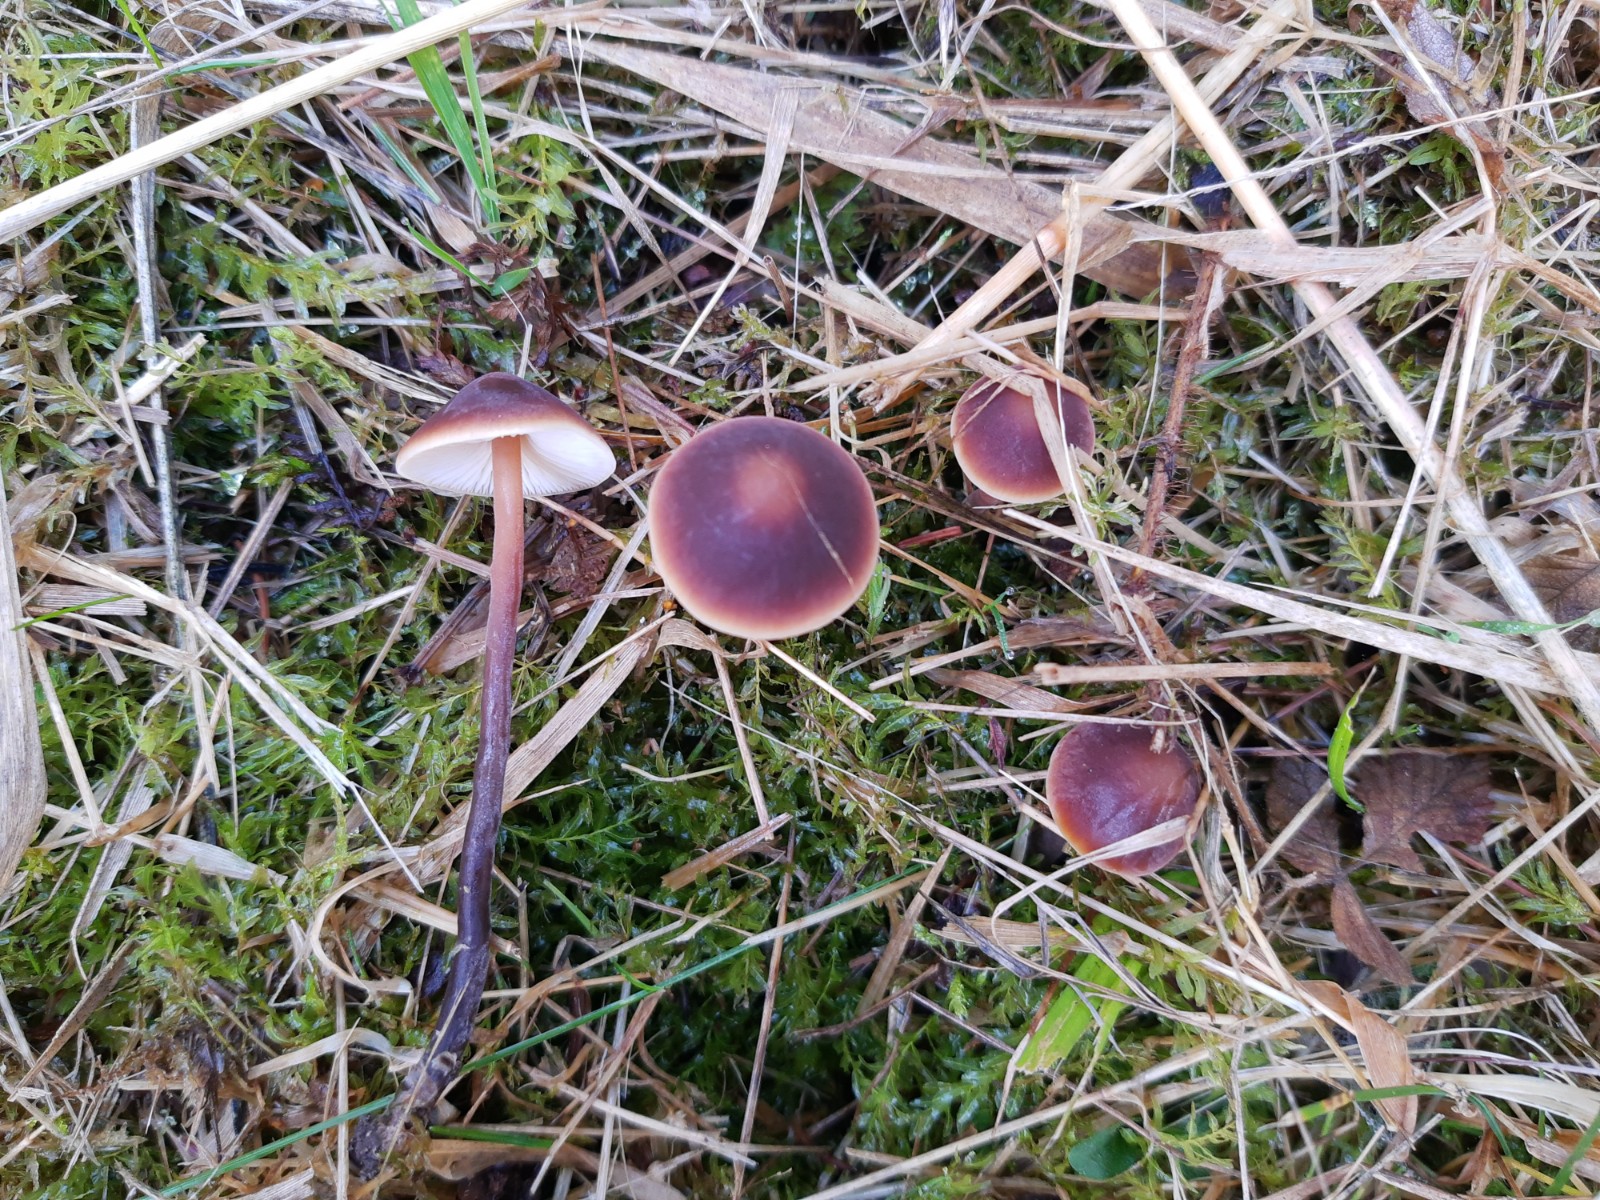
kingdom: Fungi
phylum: Basidiomycota
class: Agaricomycetes
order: Agaricales
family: Macrocystidiaceae
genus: Macrocystidia
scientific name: Macrocystidia cucumis
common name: agurkehat
